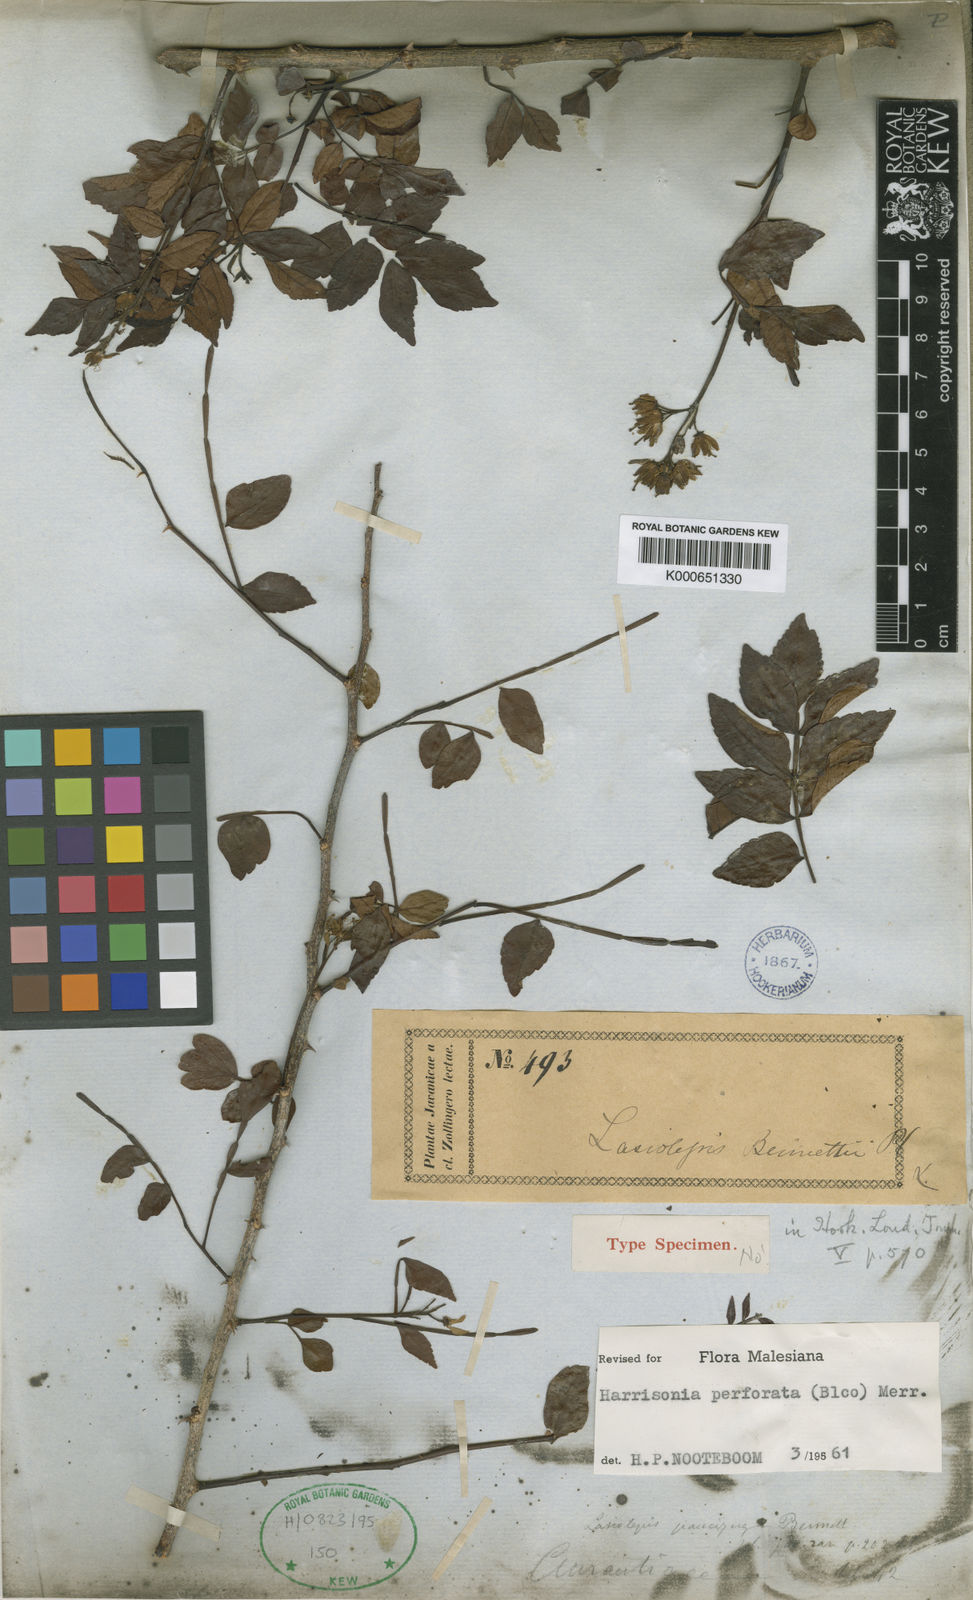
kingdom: Plantae
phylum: Tracheophyta
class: Magnoliopsida
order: Sapindales
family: Rutaceae
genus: Harrisonia
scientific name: Harrisonia perforata
